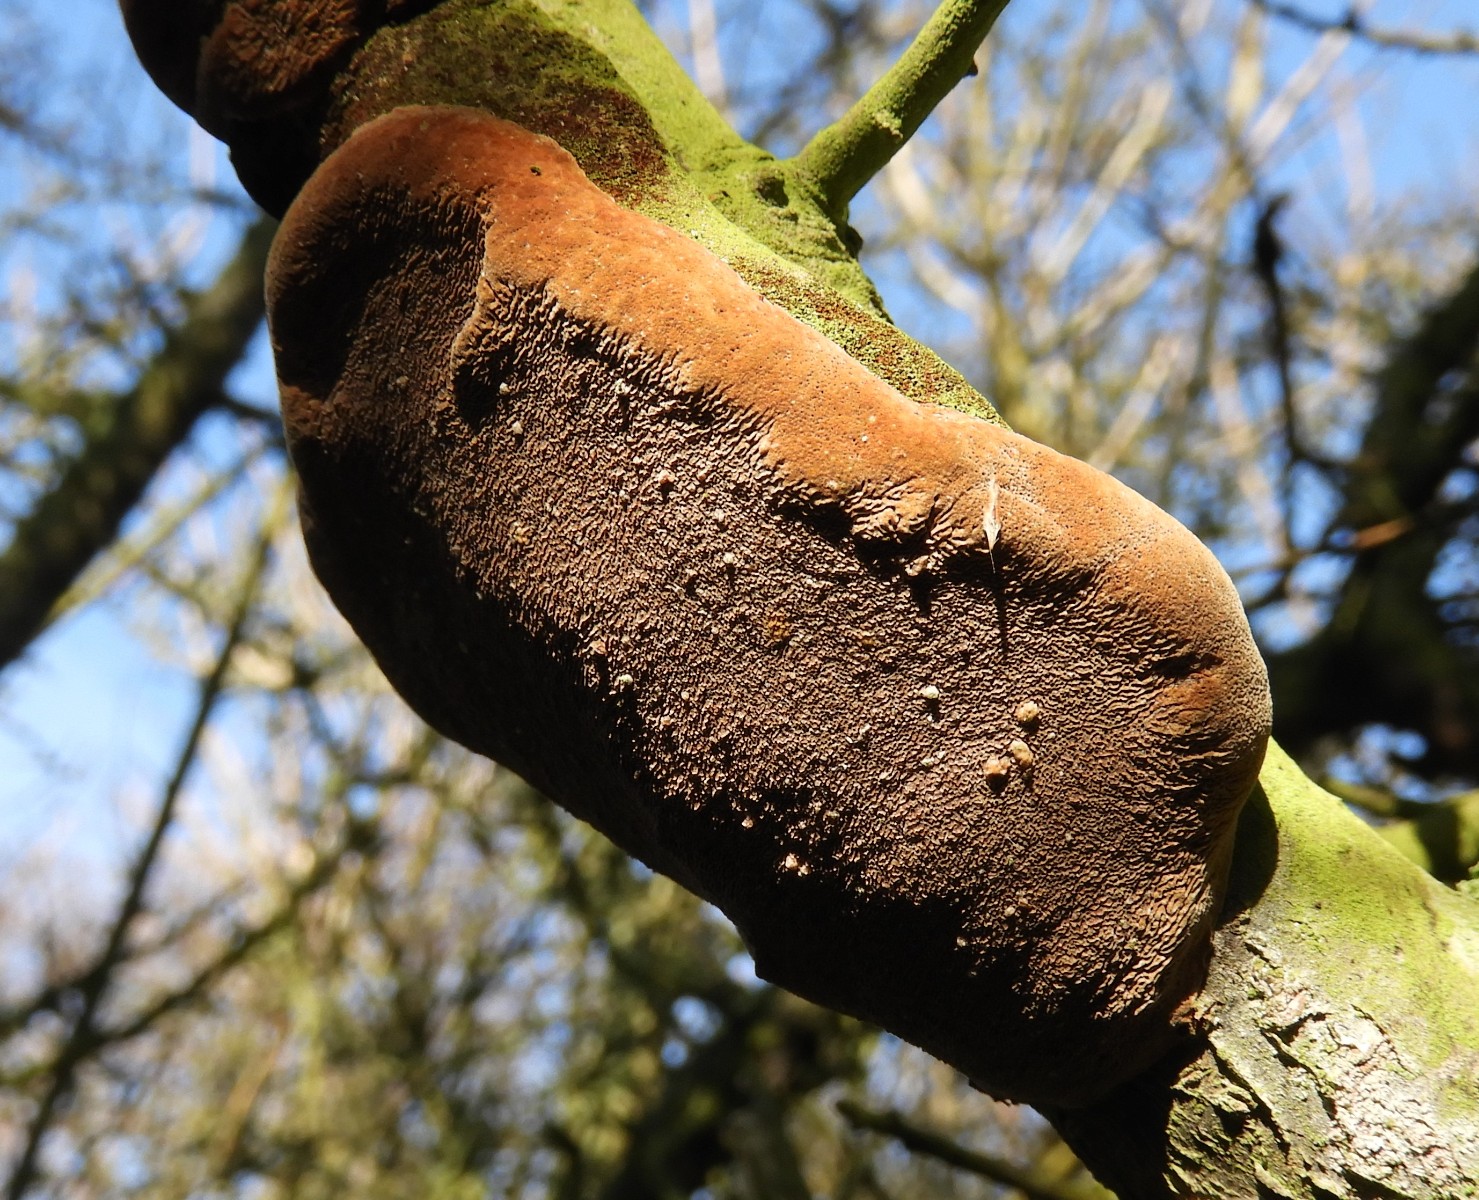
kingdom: Fungi
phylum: Basidiomycota
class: Agaricomycetes
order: Hymenochaetales
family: Hymenochaetaceae
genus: Phellinus
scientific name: Phellinus pomaceus
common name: blomme-ildporesvamp
